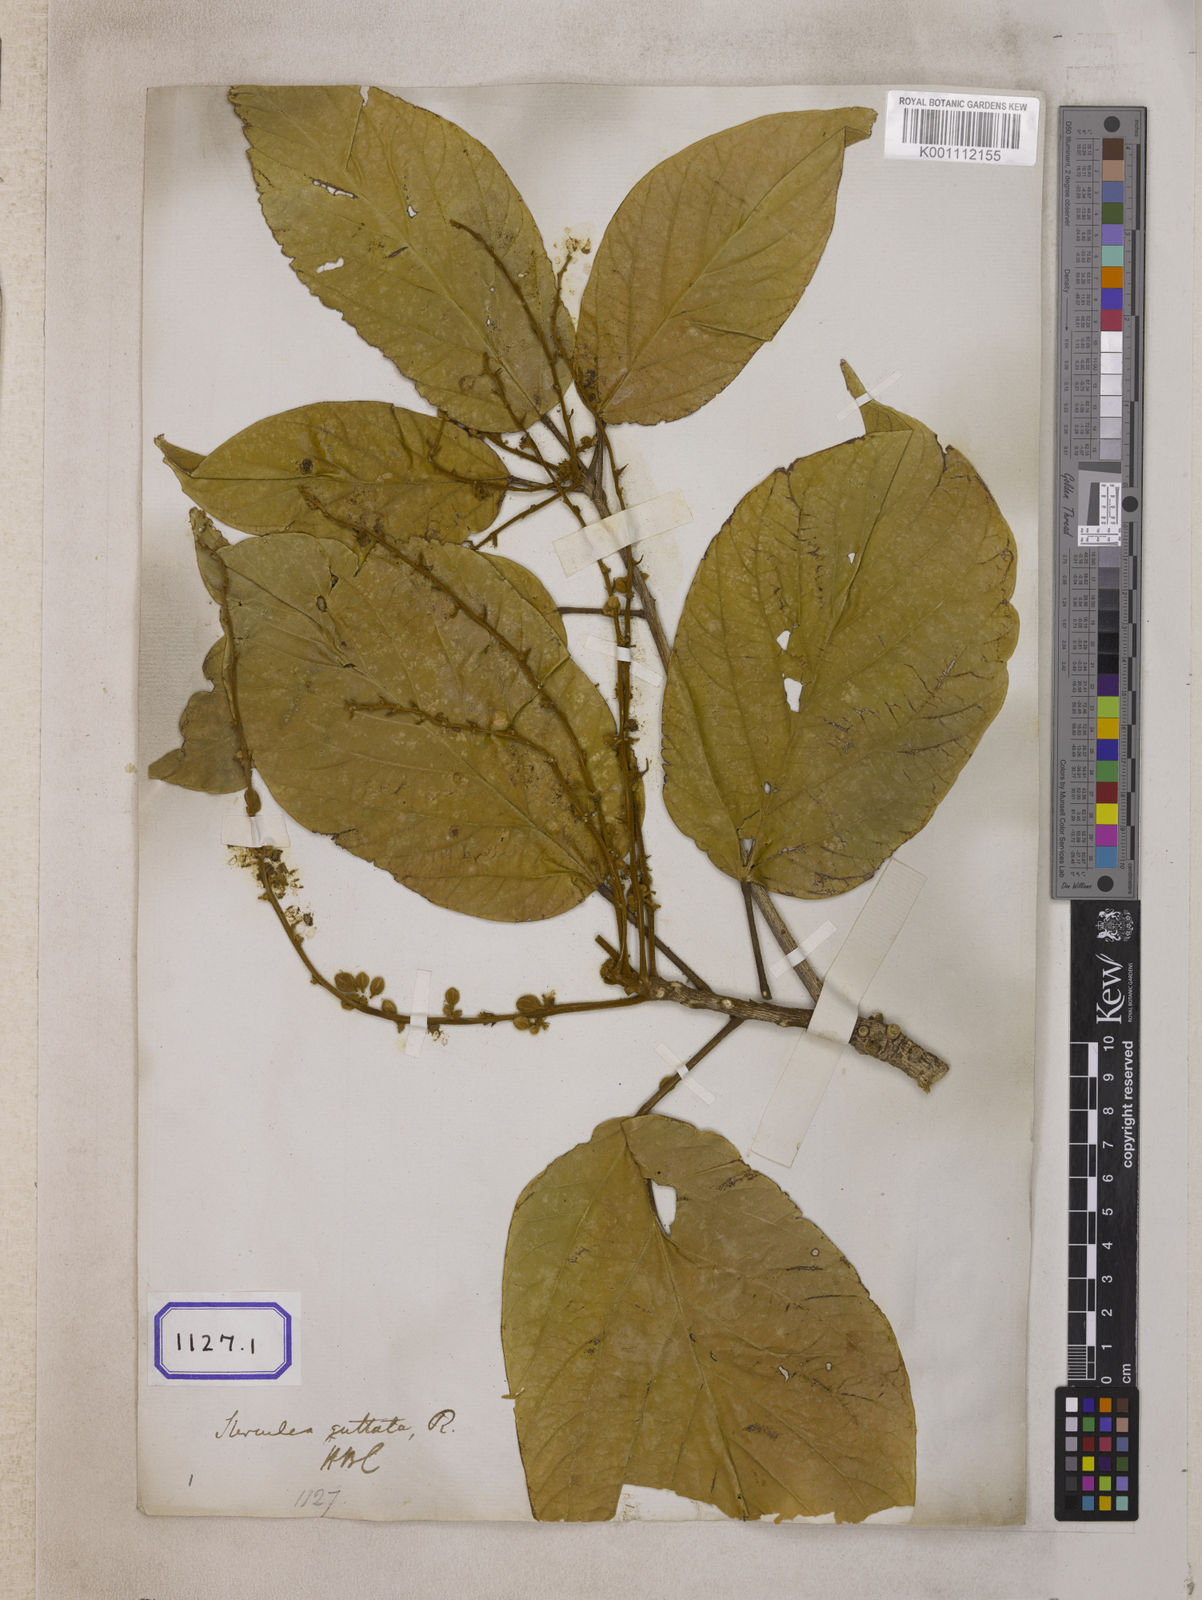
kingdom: Plantae
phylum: Tracheophyta
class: Magnoliopsida
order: Malvales
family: Malvaceae
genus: Sterculia
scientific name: Sterculia guttata
